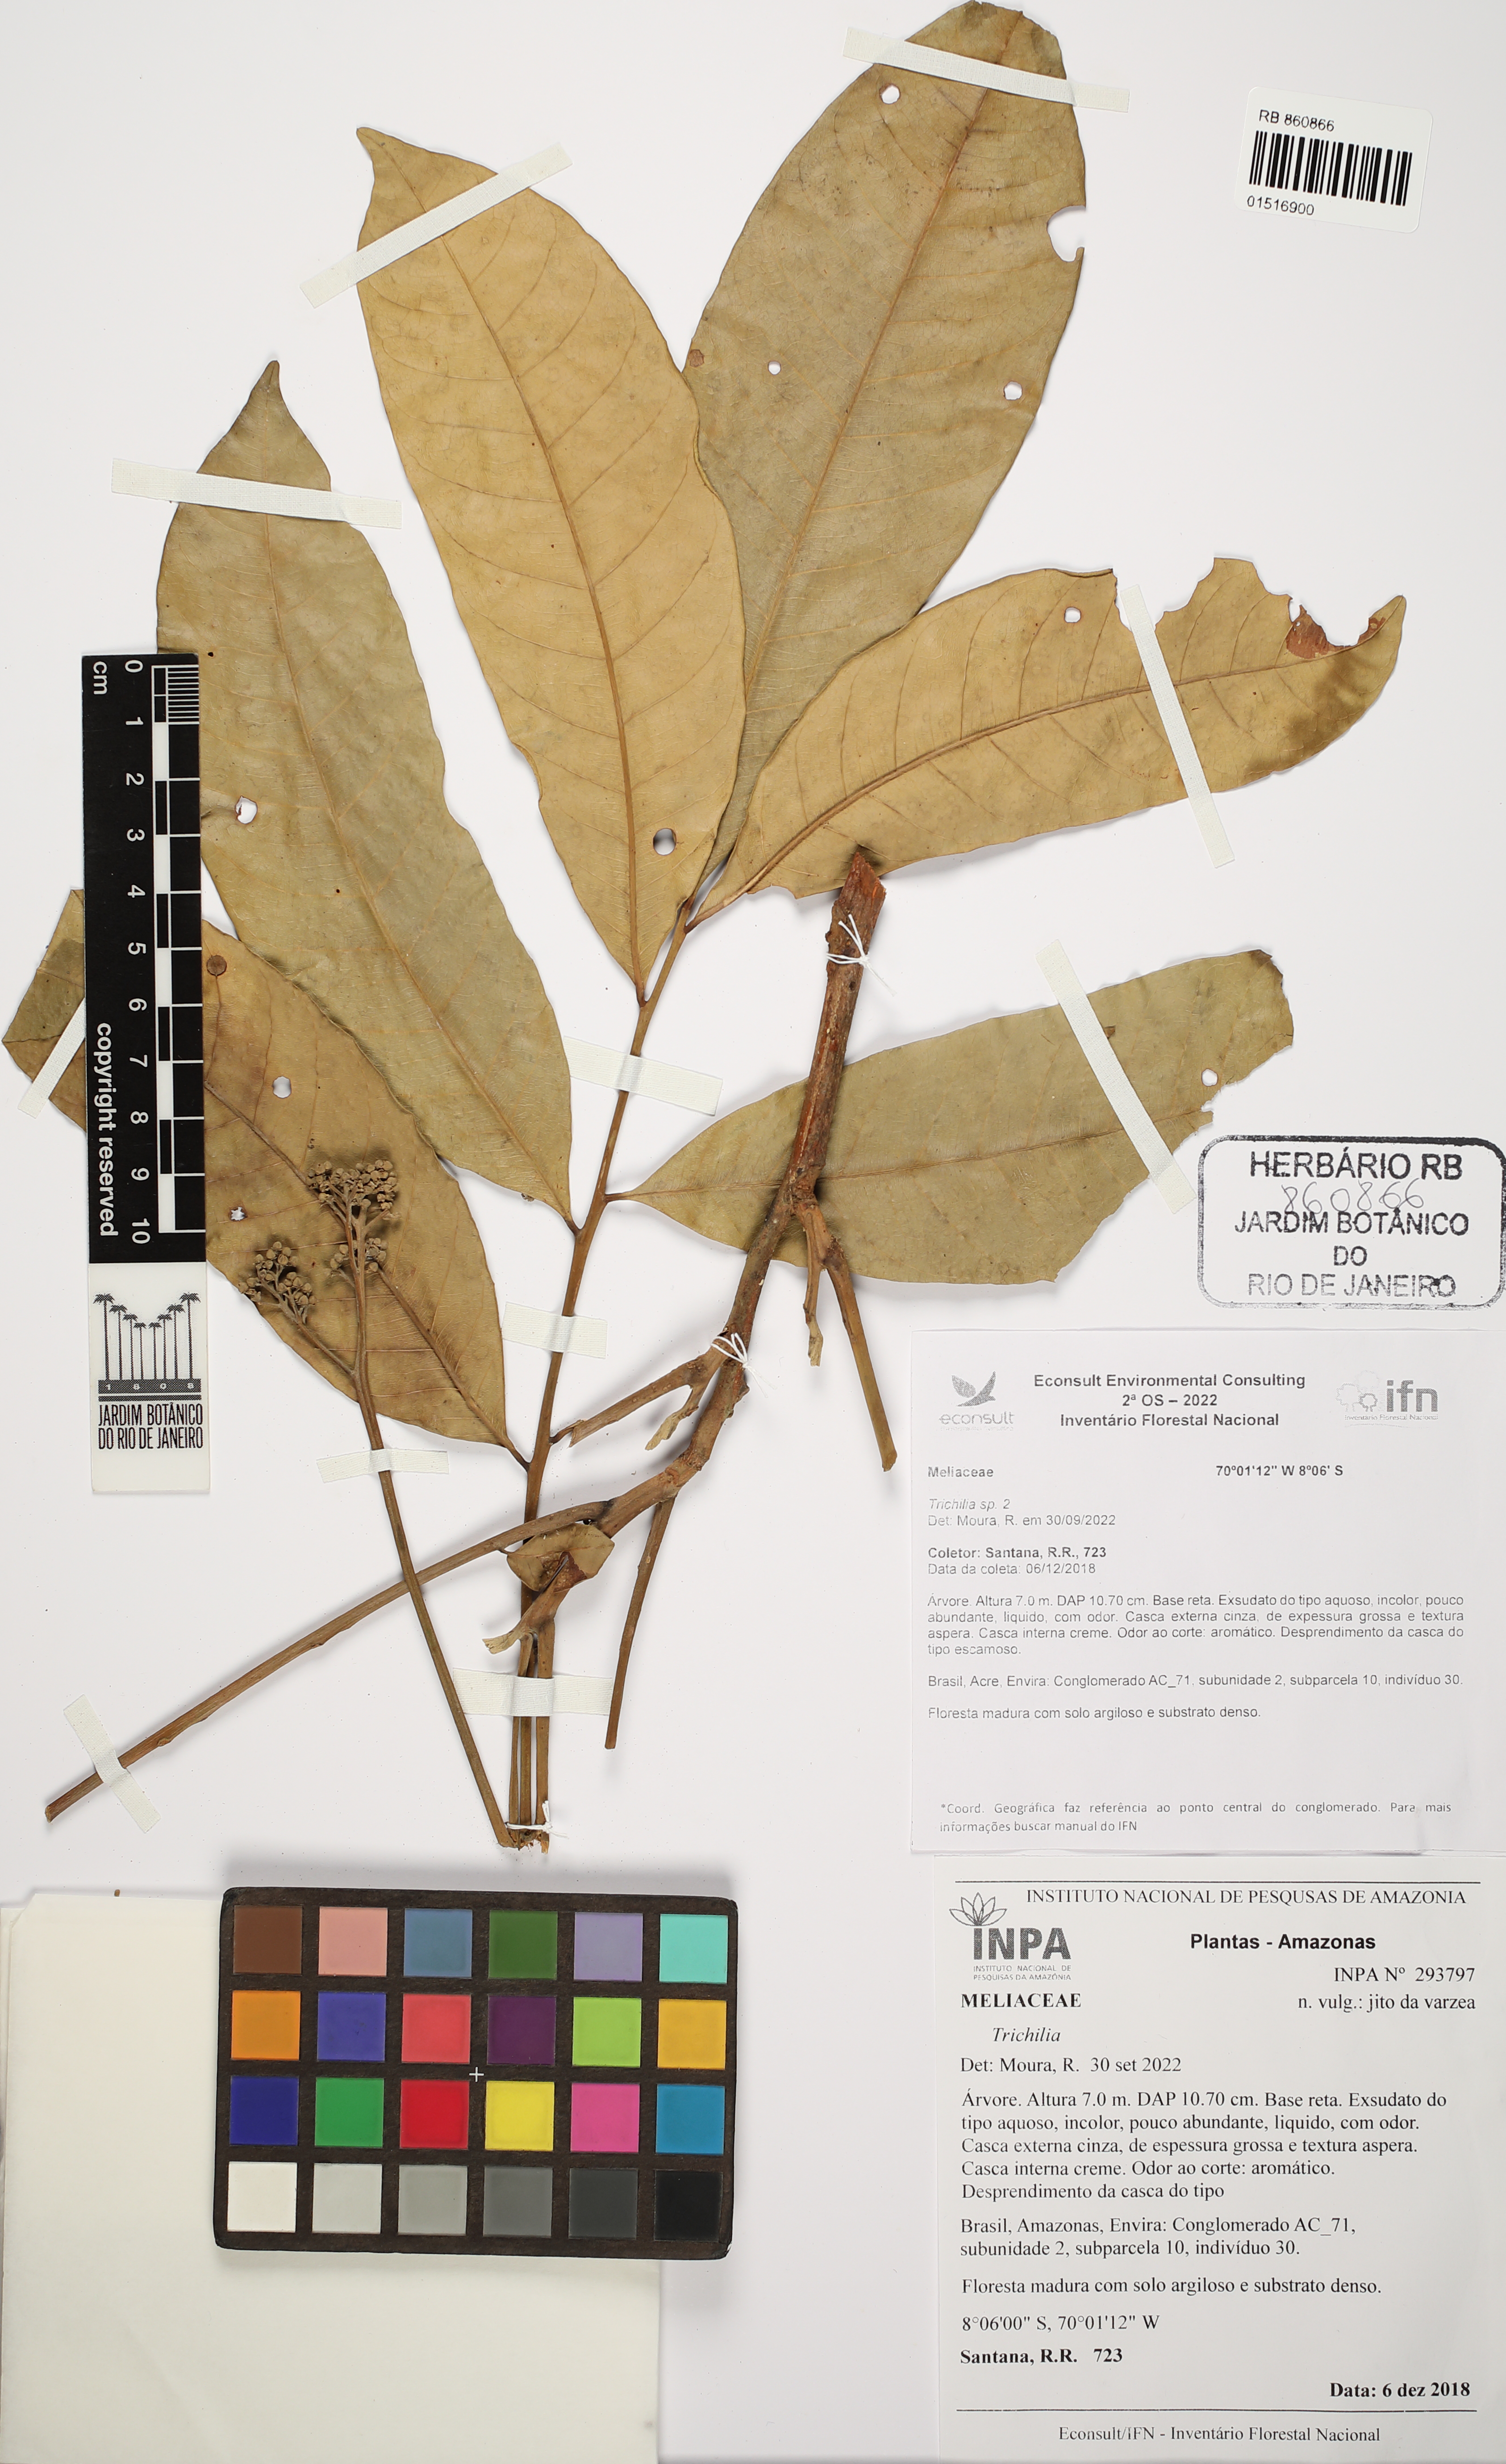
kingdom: Plantae
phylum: Tracheophyta
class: Magnoliopsida
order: Sapindales
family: Meliaceae
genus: Trichilia
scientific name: Trichilia
